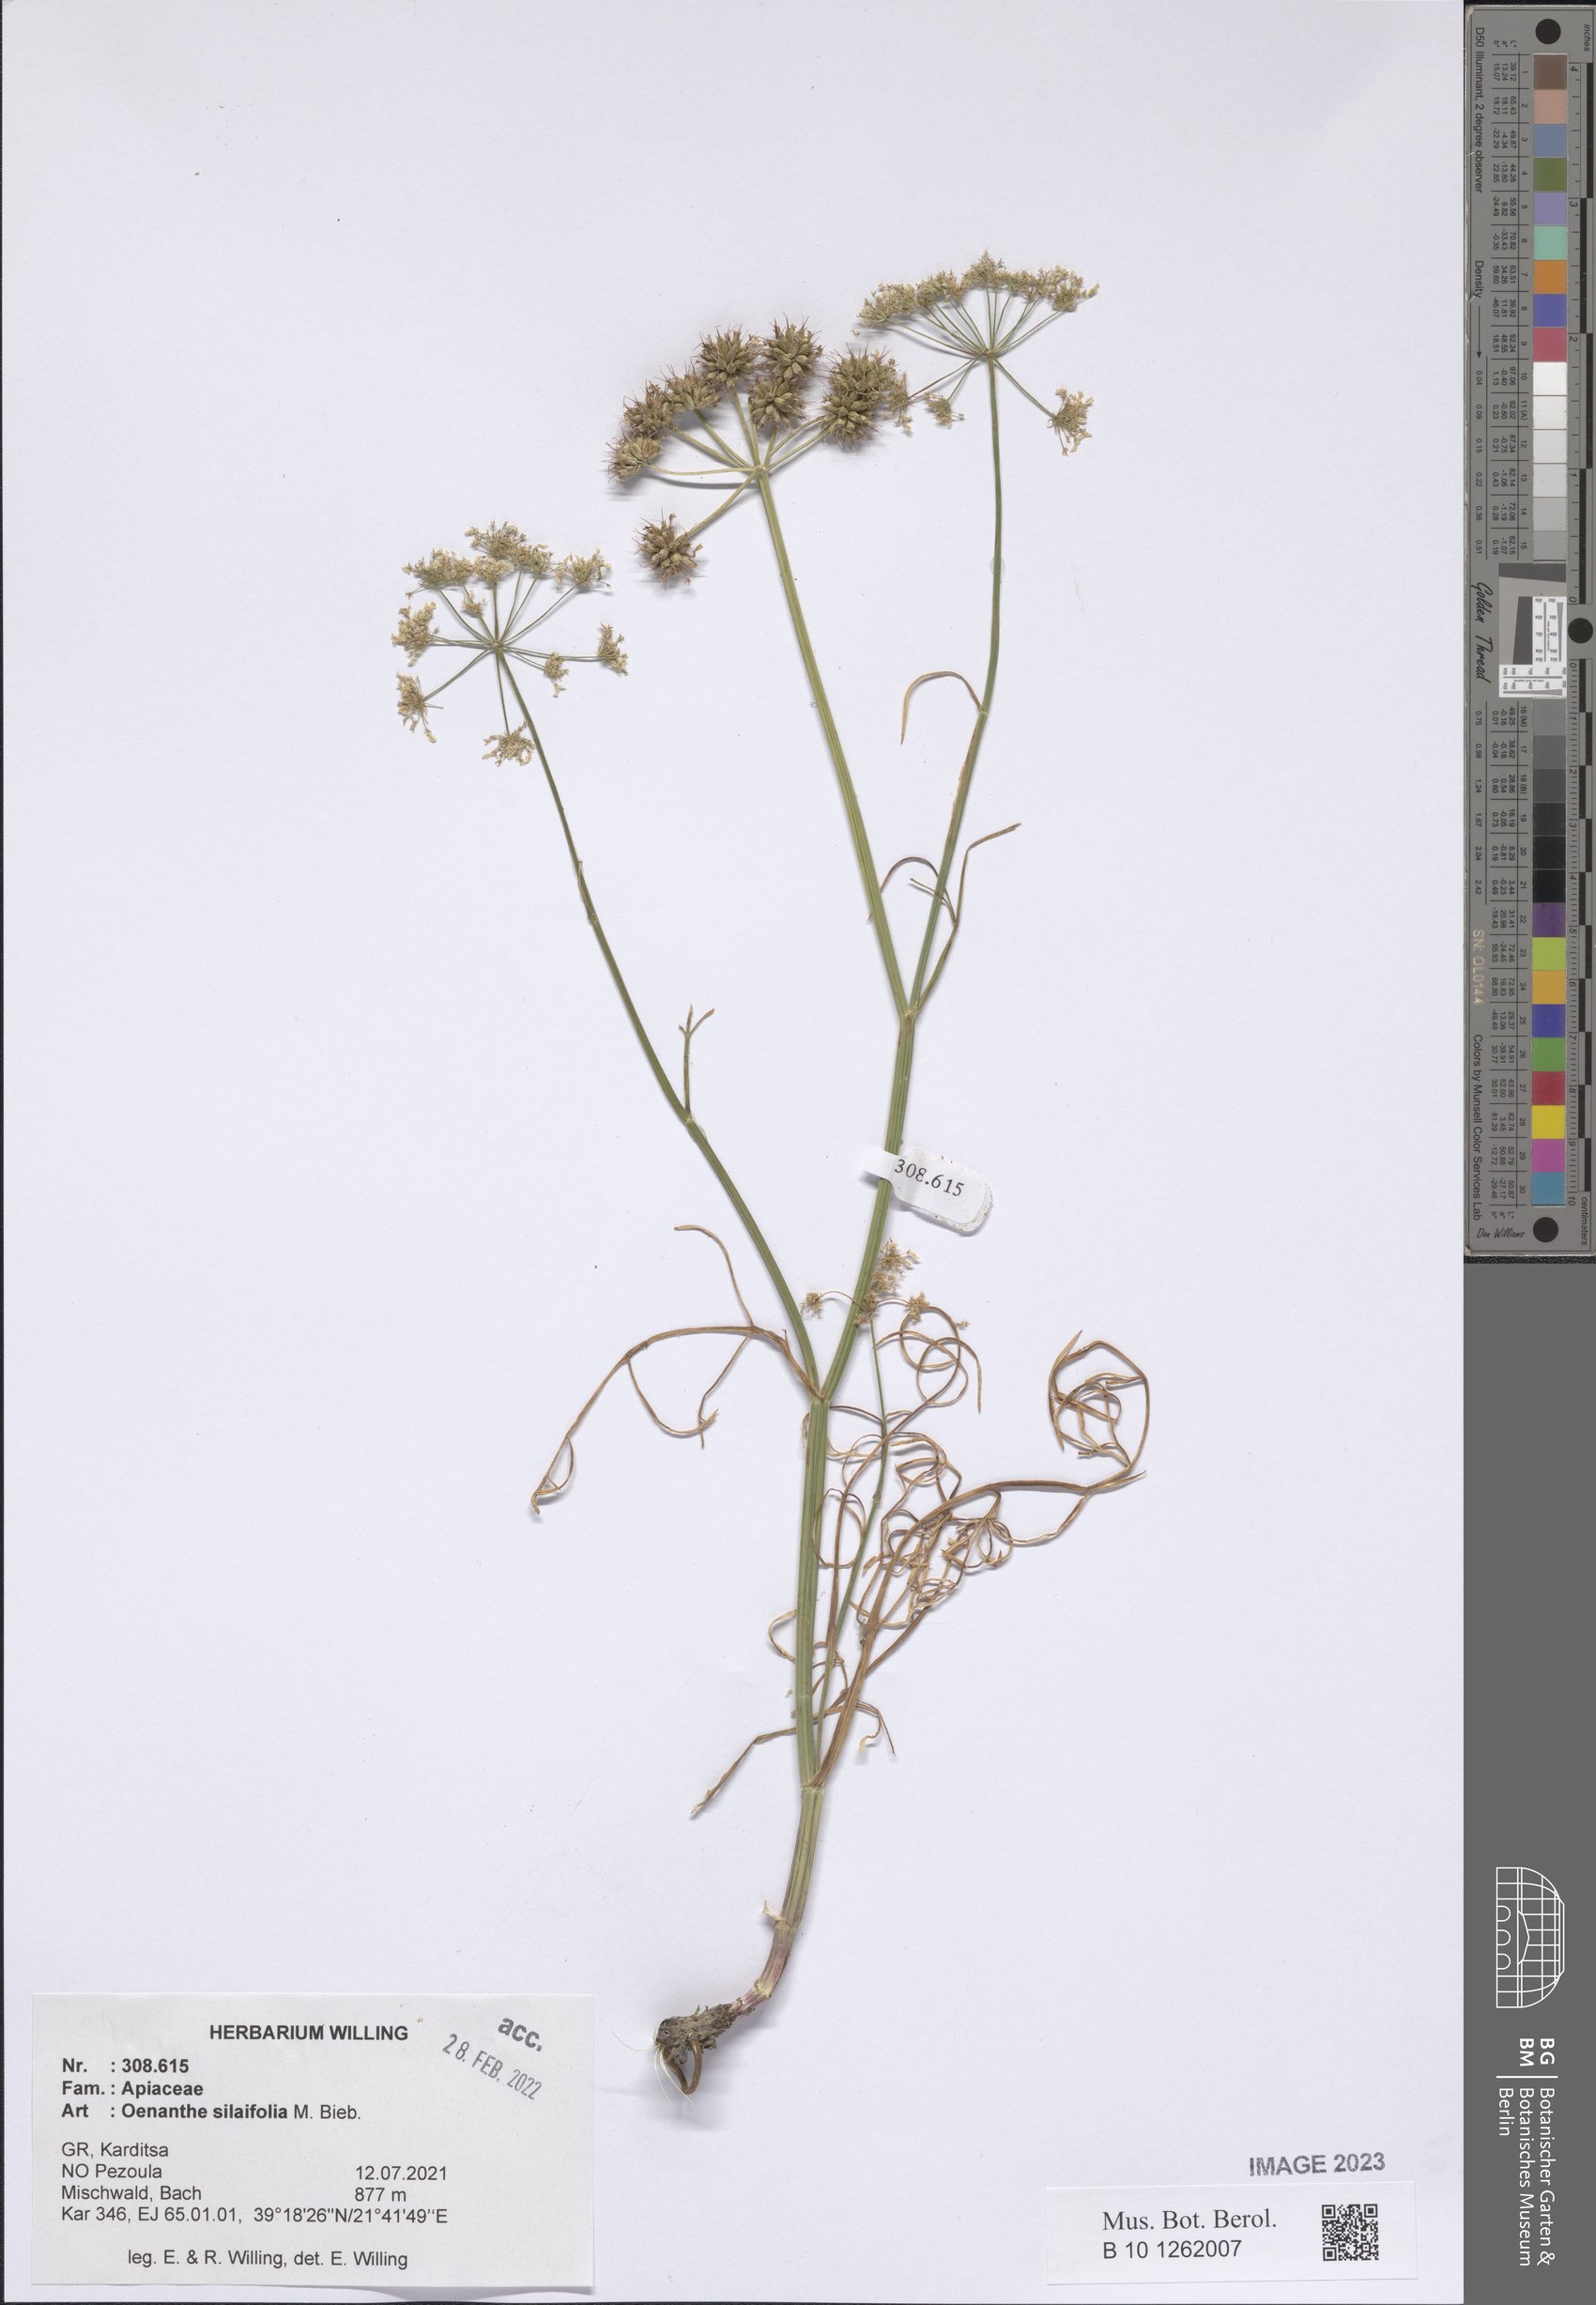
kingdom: Plantae
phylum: Tracheophyta
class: Magnoliopsida
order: Apiales
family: Apiaceae
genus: Oenanthe
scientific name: Oenanthe silaifolia
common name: Narrow-leaved water-dropwort
